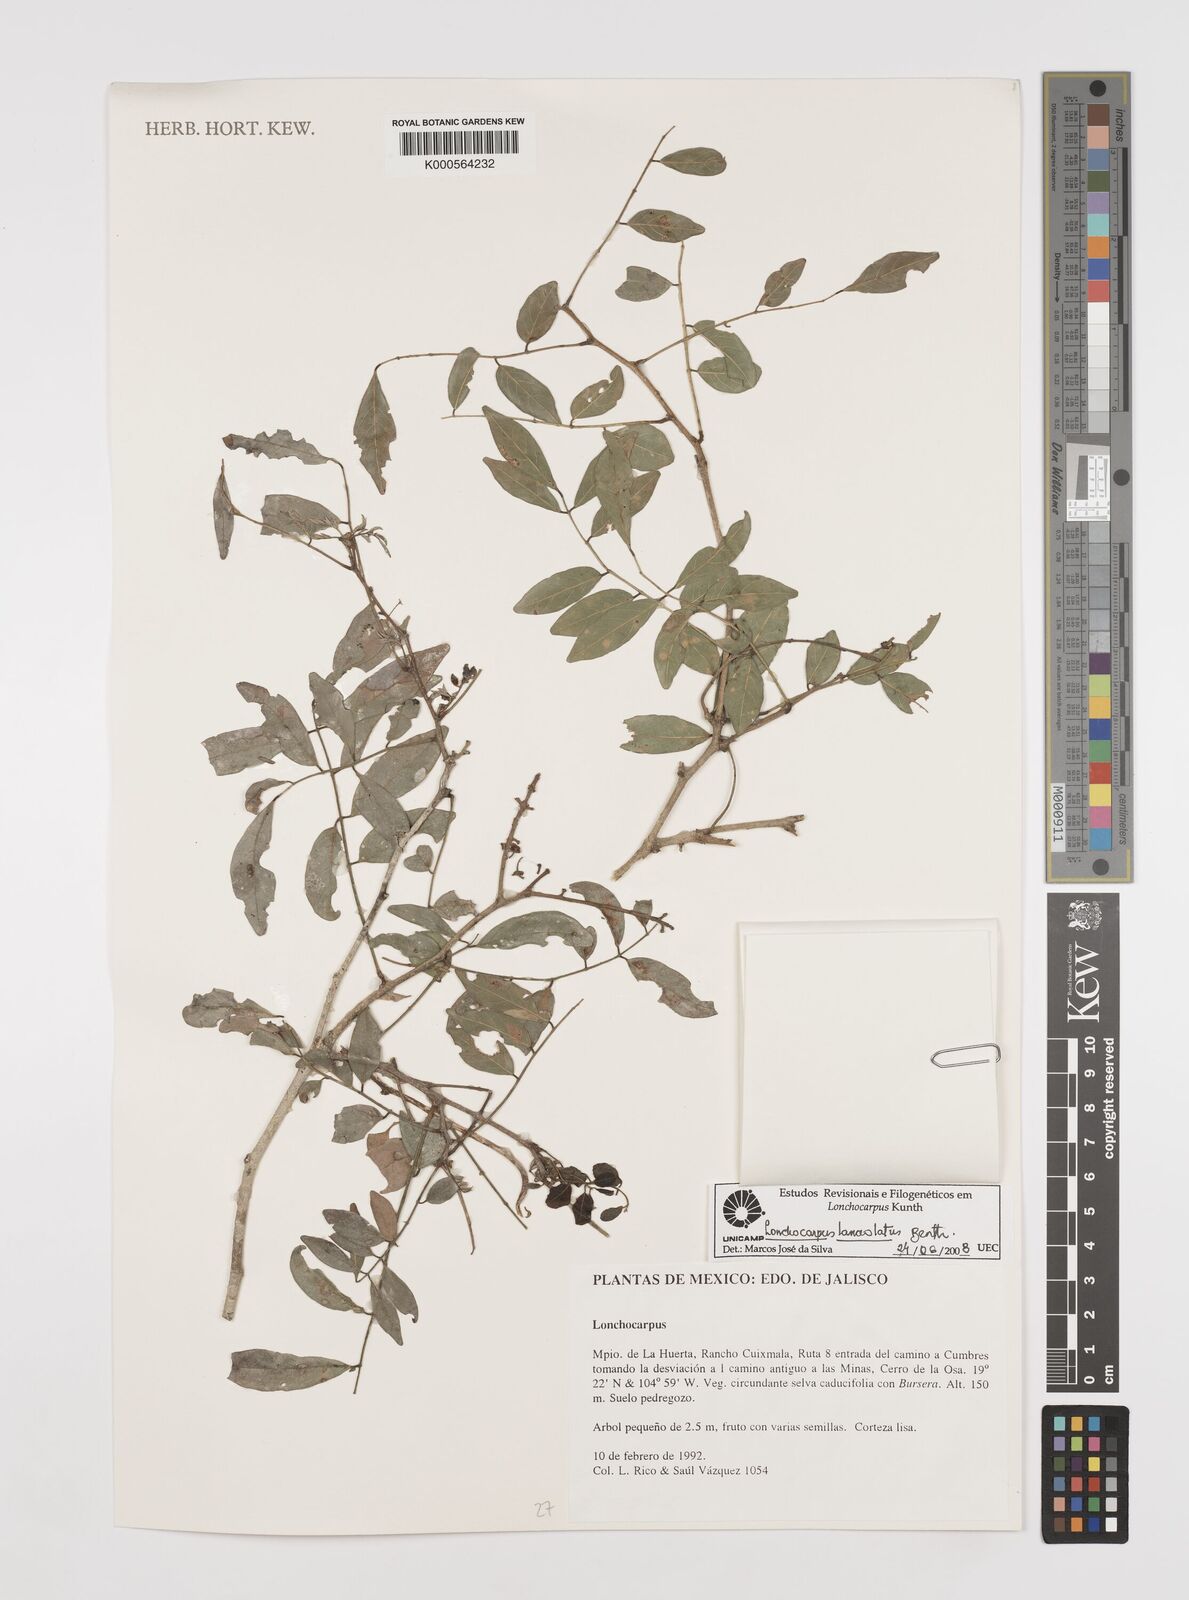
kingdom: Plantae
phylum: Tracheophyta
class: Magnoliopsida
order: Fabales
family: Fabaceae
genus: Lonchocarpus
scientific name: Lonchocarpus lanceolatus
